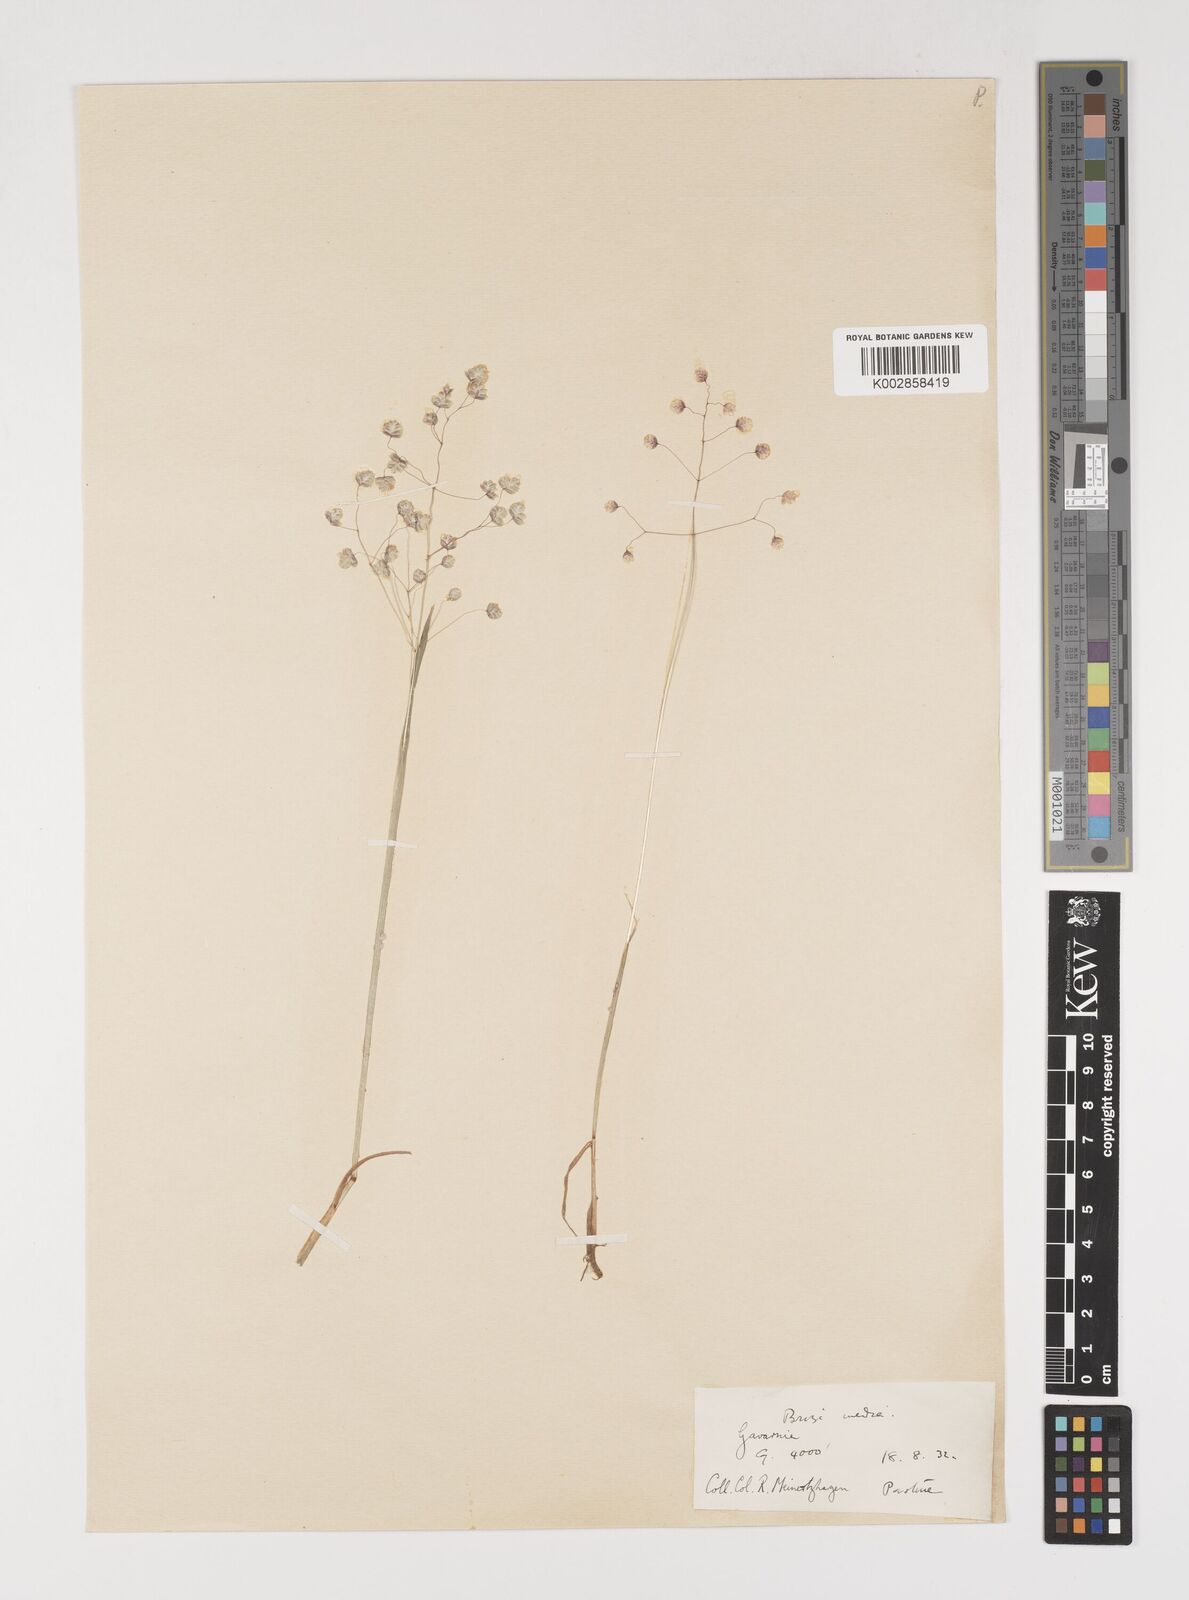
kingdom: Plantae
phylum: Tracheophyta
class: Liliopsida
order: Poales
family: Poaceae
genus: Briza
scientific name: Briza media
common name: Quaking grass
